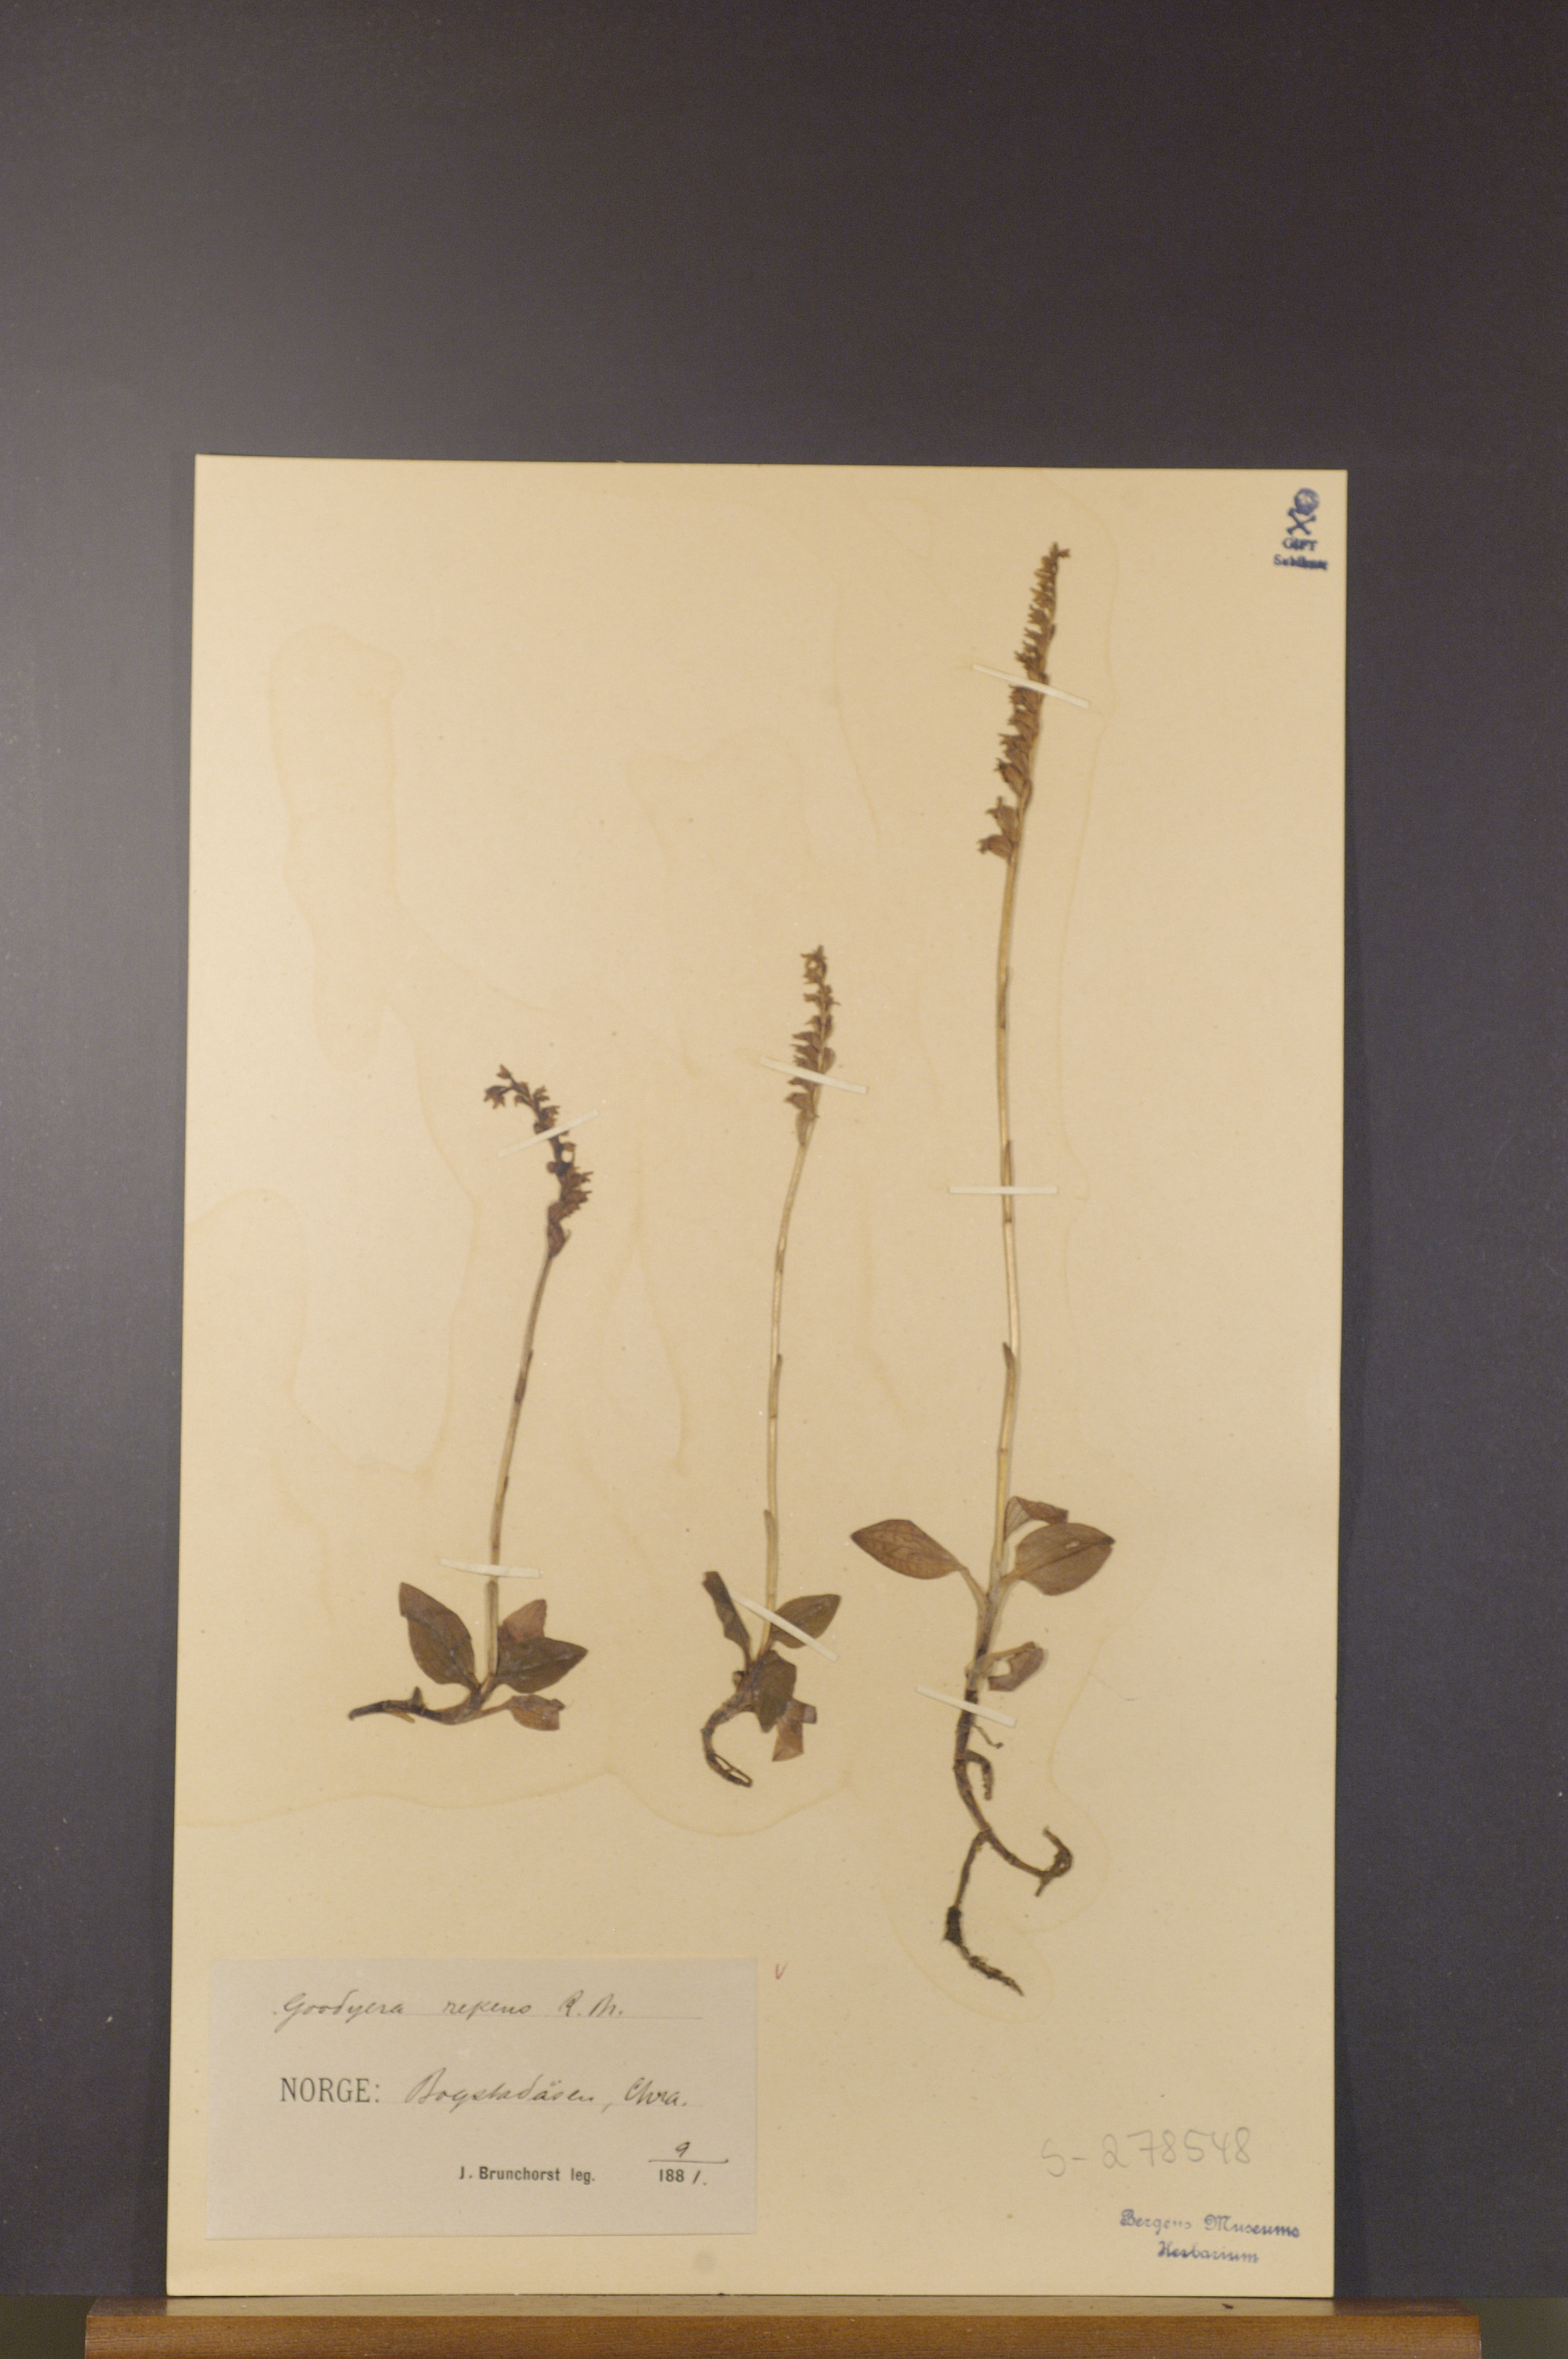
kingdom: Plantae
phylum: Tracheophyta
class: Liliopsida
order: Asparagales
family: Orchidaceae
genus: Goodyera
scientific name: Goodyera repens
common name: Creeping lady's-tresses
